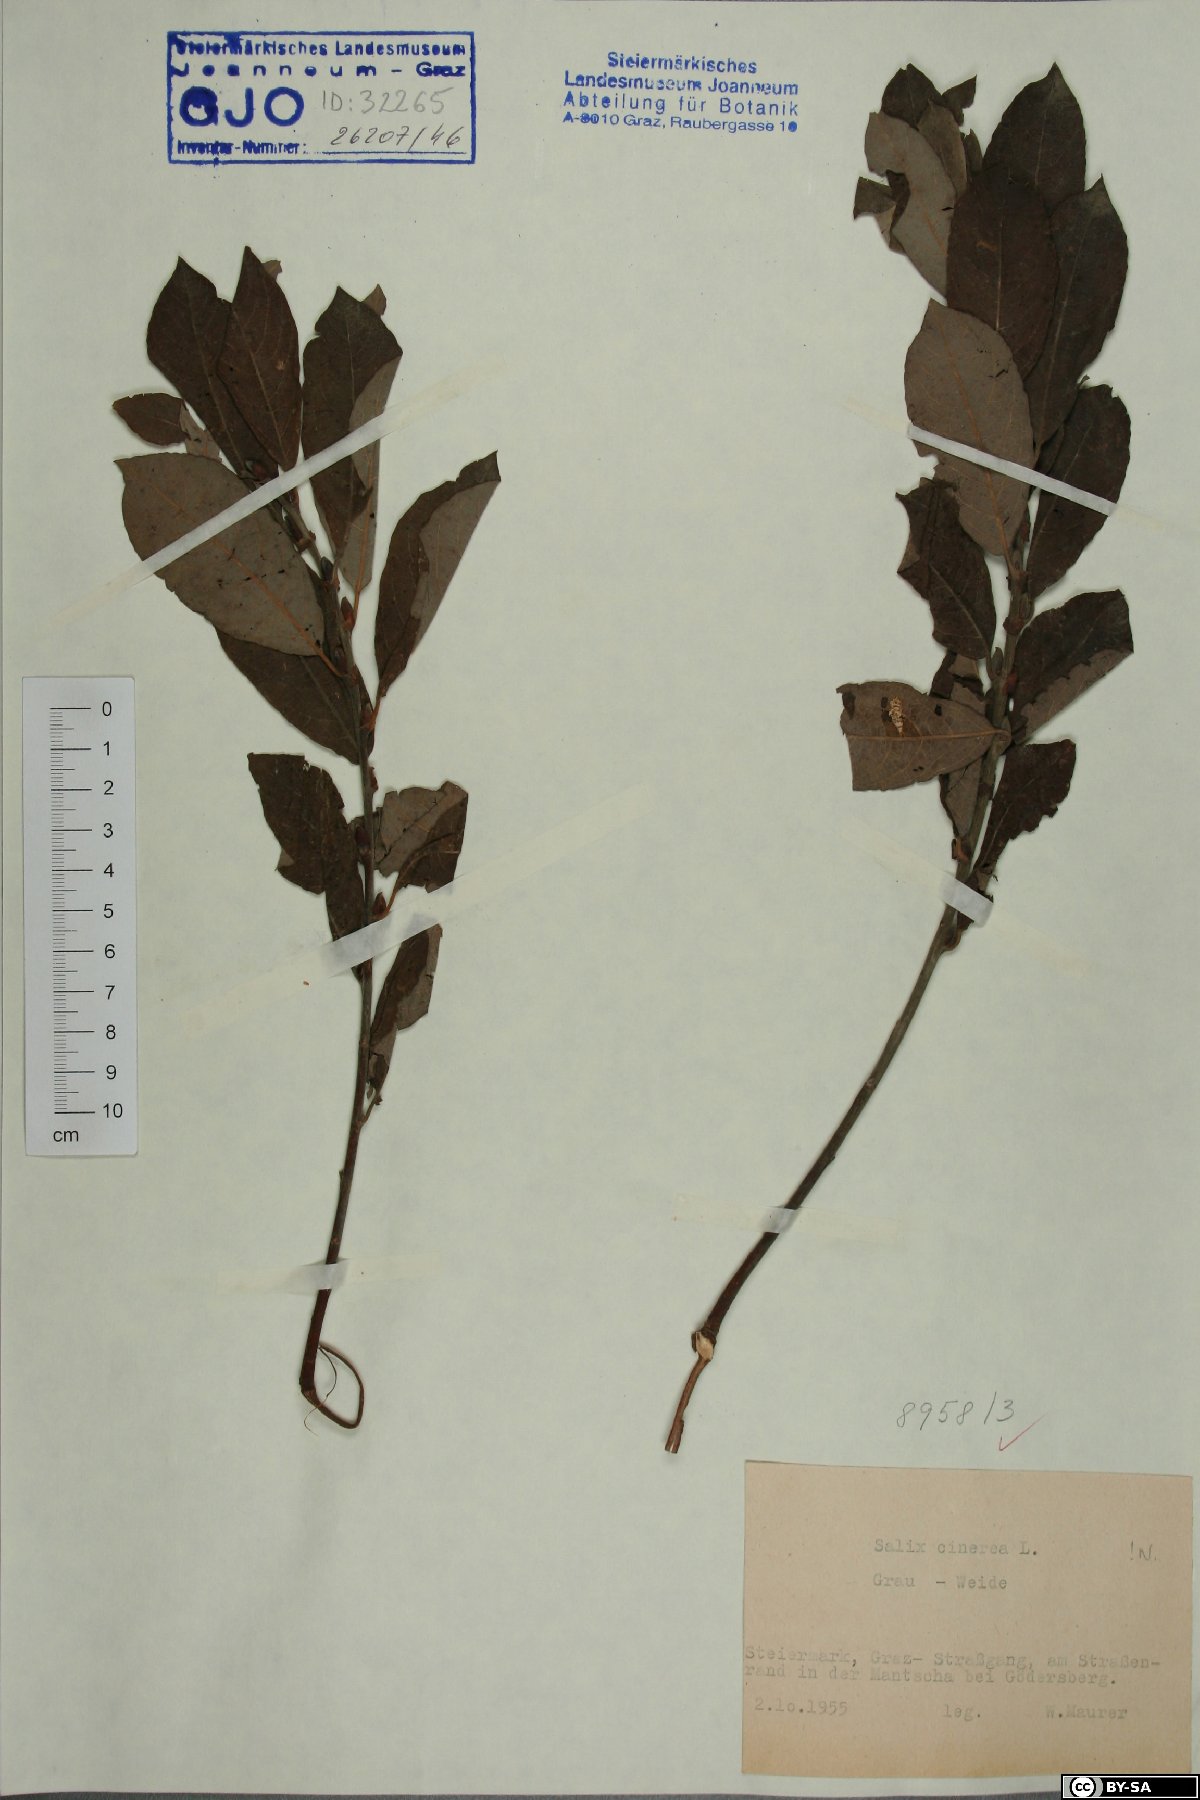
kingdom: Plantae
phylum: Tracheophyta
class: Magnoliopsida
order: Malpighiales
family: Salicaceae
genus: Salix
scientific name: Salix cinerea
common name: Common sallow
